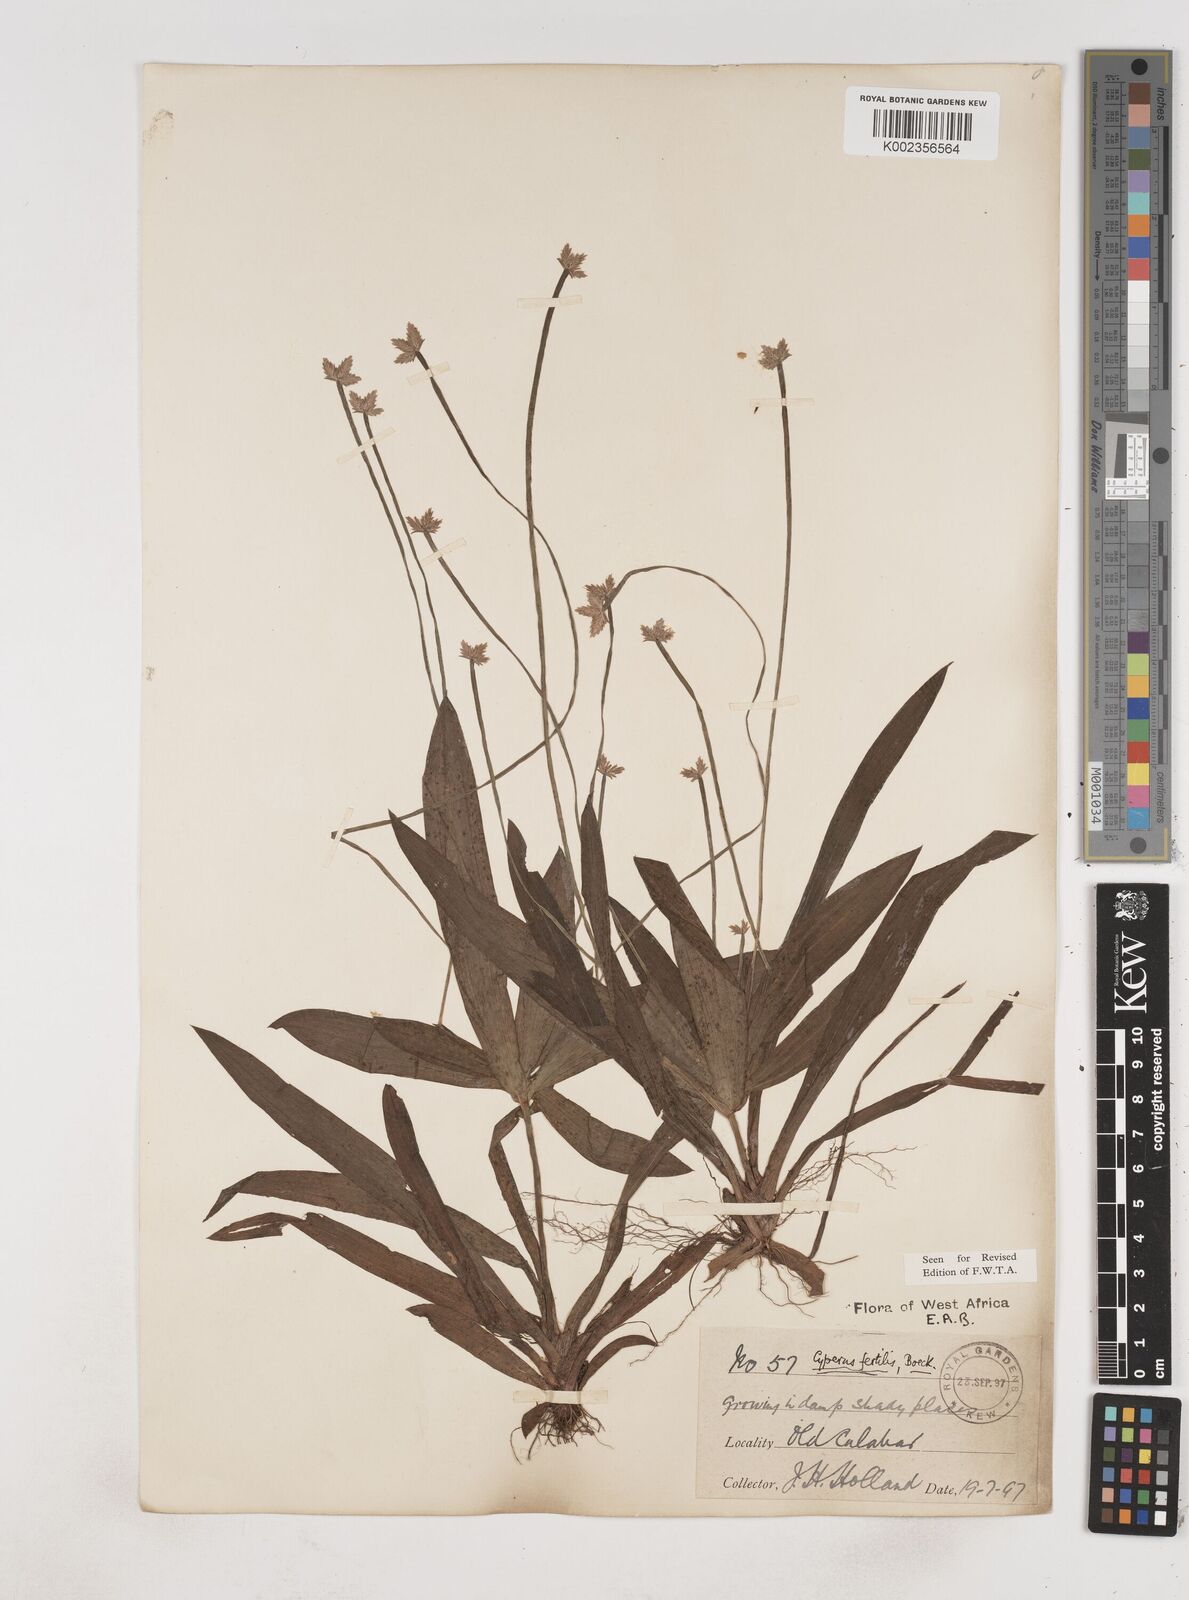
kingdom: Plantae
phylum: Tracheophyta
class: Liliopsida
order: Poales
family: Cyperaceae
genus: Cyperus
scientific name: Cyperus fertilis
